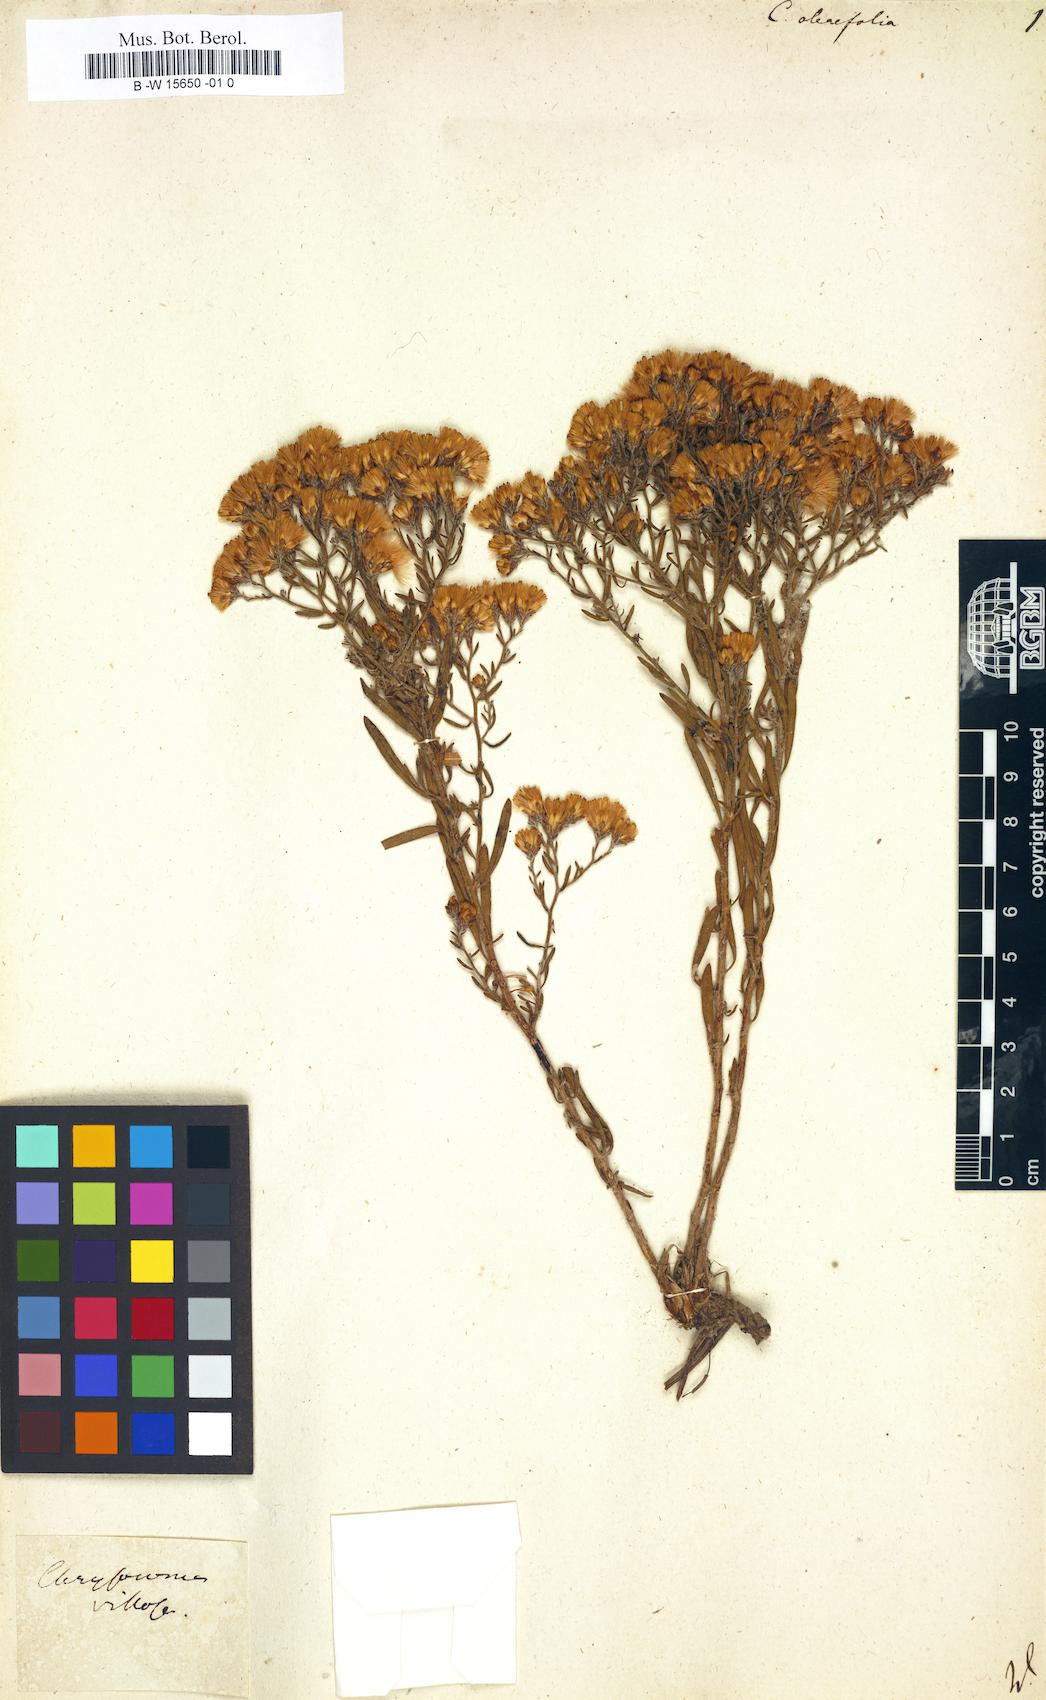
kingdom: Plantae
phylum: Tracheophyta
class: Magnoliopsida
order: Asterales
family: Asteraceae
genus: Galatella
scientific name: Galatella villosa
